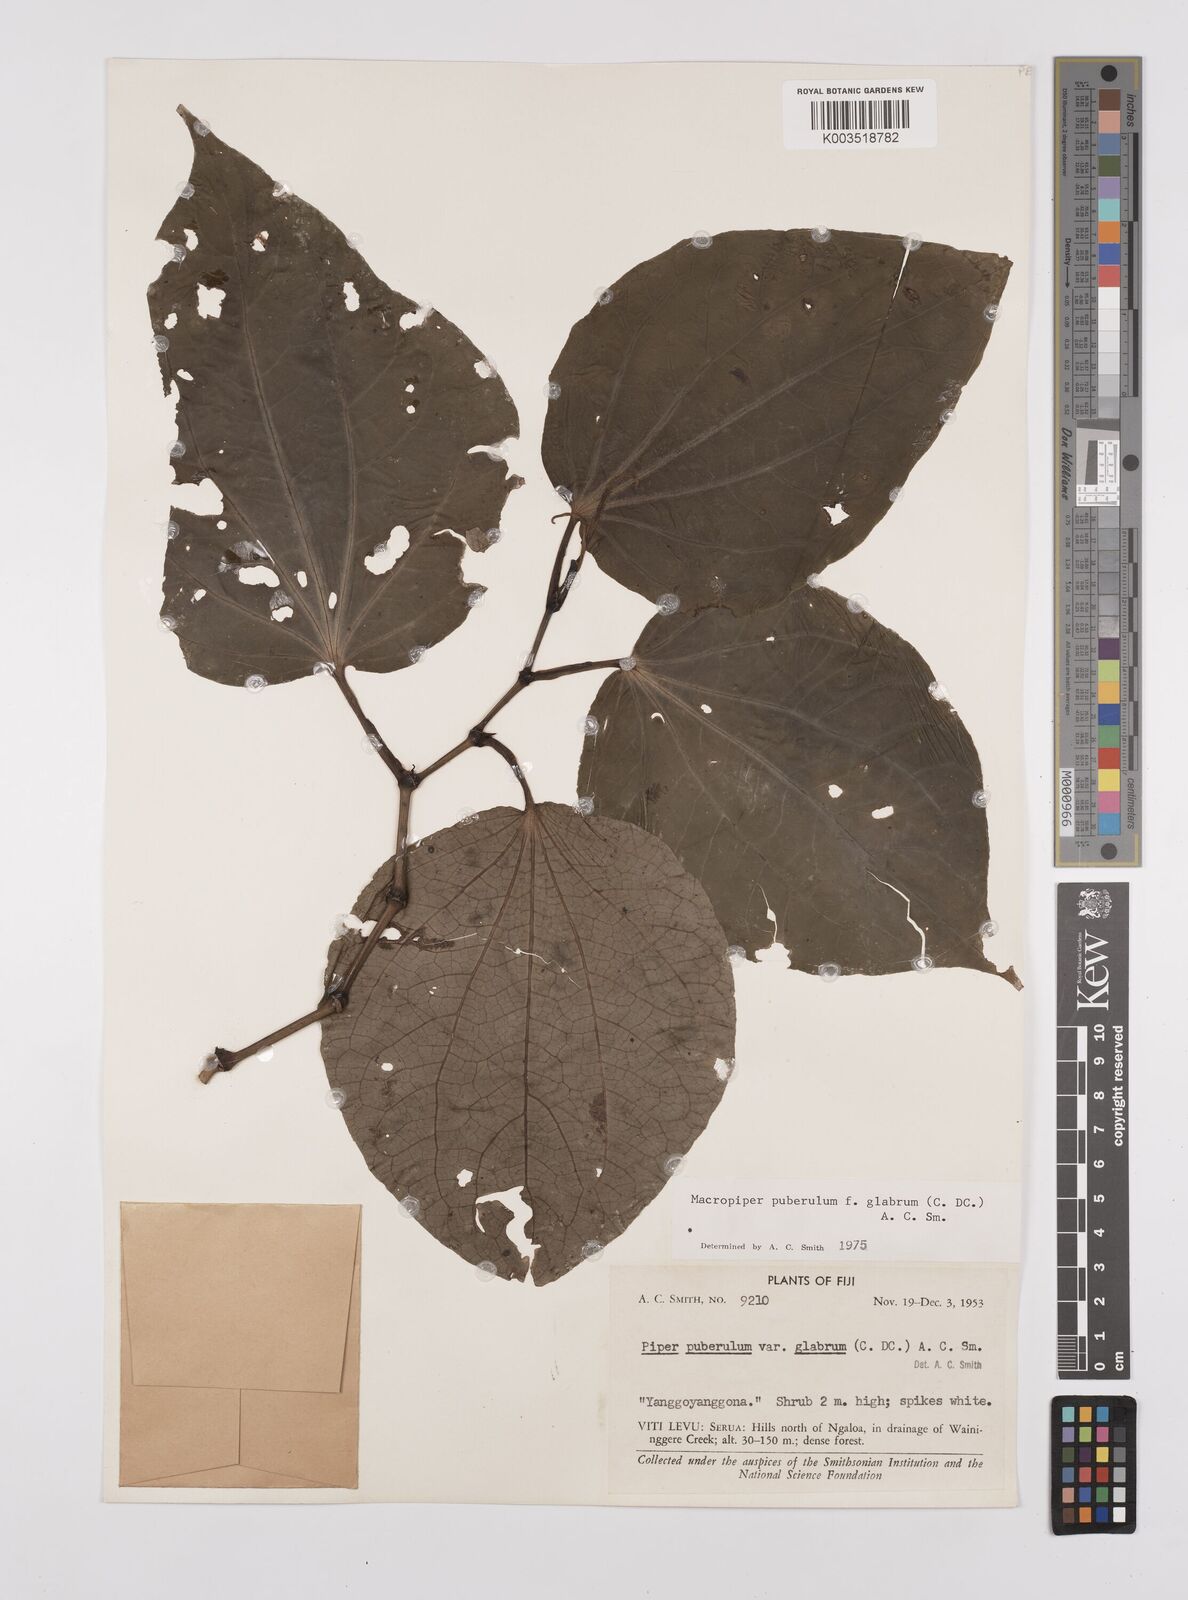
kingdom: Plantae
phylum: Tracheophyta
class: Magnoliopsida
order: Piperales
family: Piperaceae
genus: Macropiper
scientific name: Macropiper puberulum
